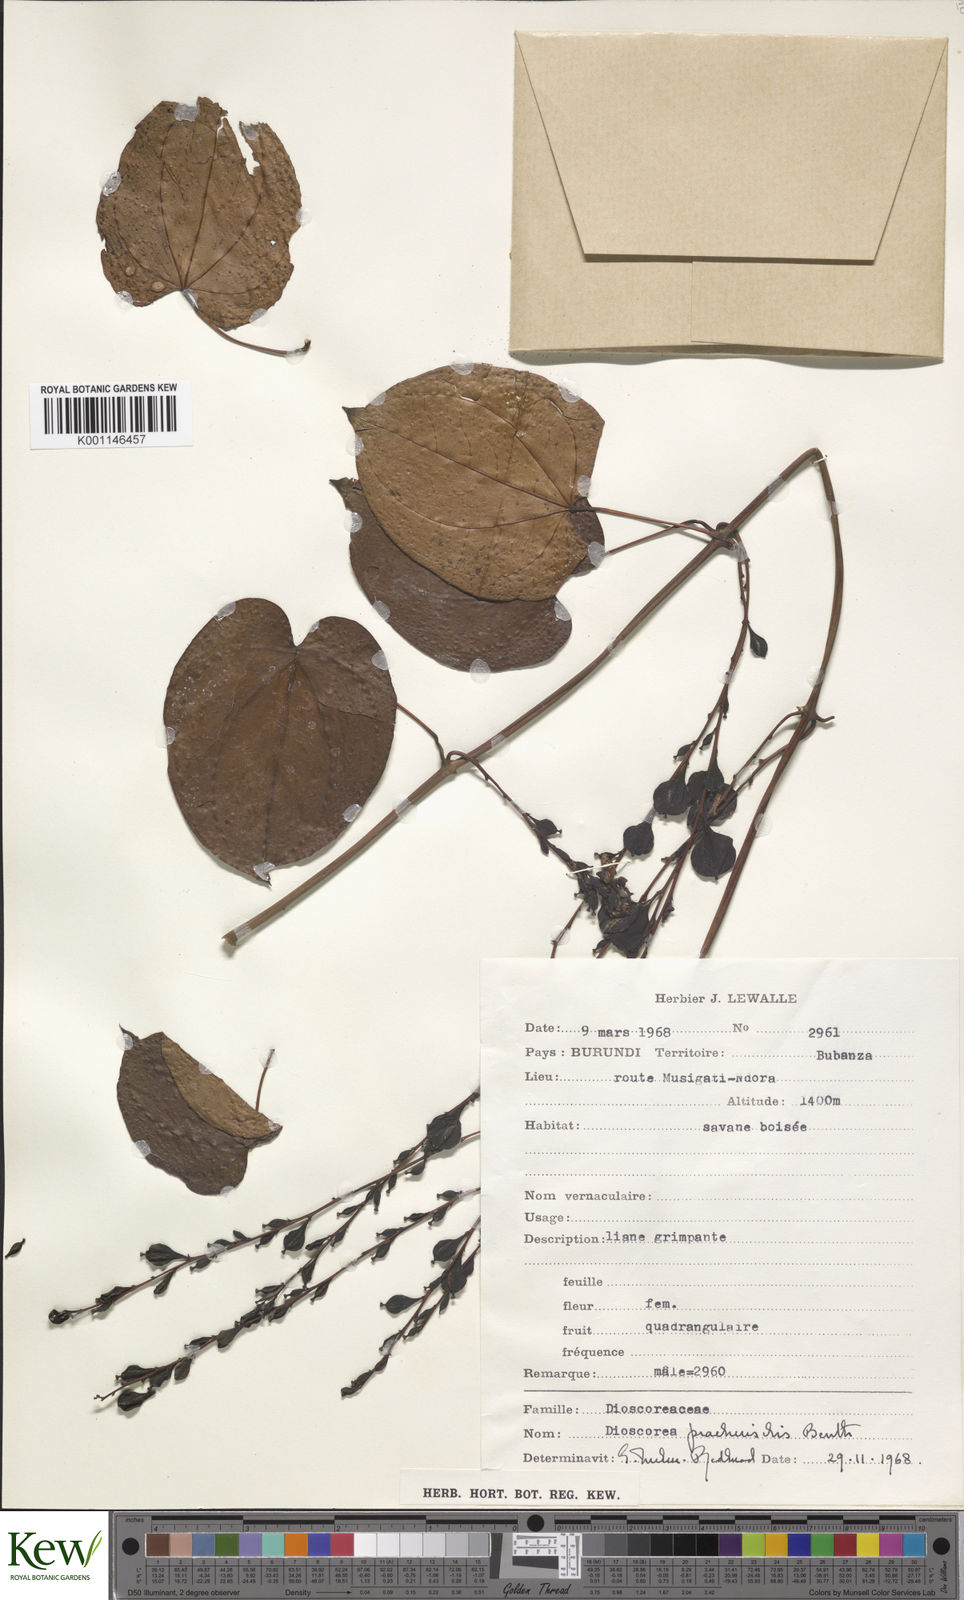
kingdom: Plantae
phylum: Tracheophyta
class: Liliopsida
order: Dioscoreales
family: Dioscoreaceae
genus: Dioscorea
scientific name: Dioscorea praehensilis
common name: Bush yam
